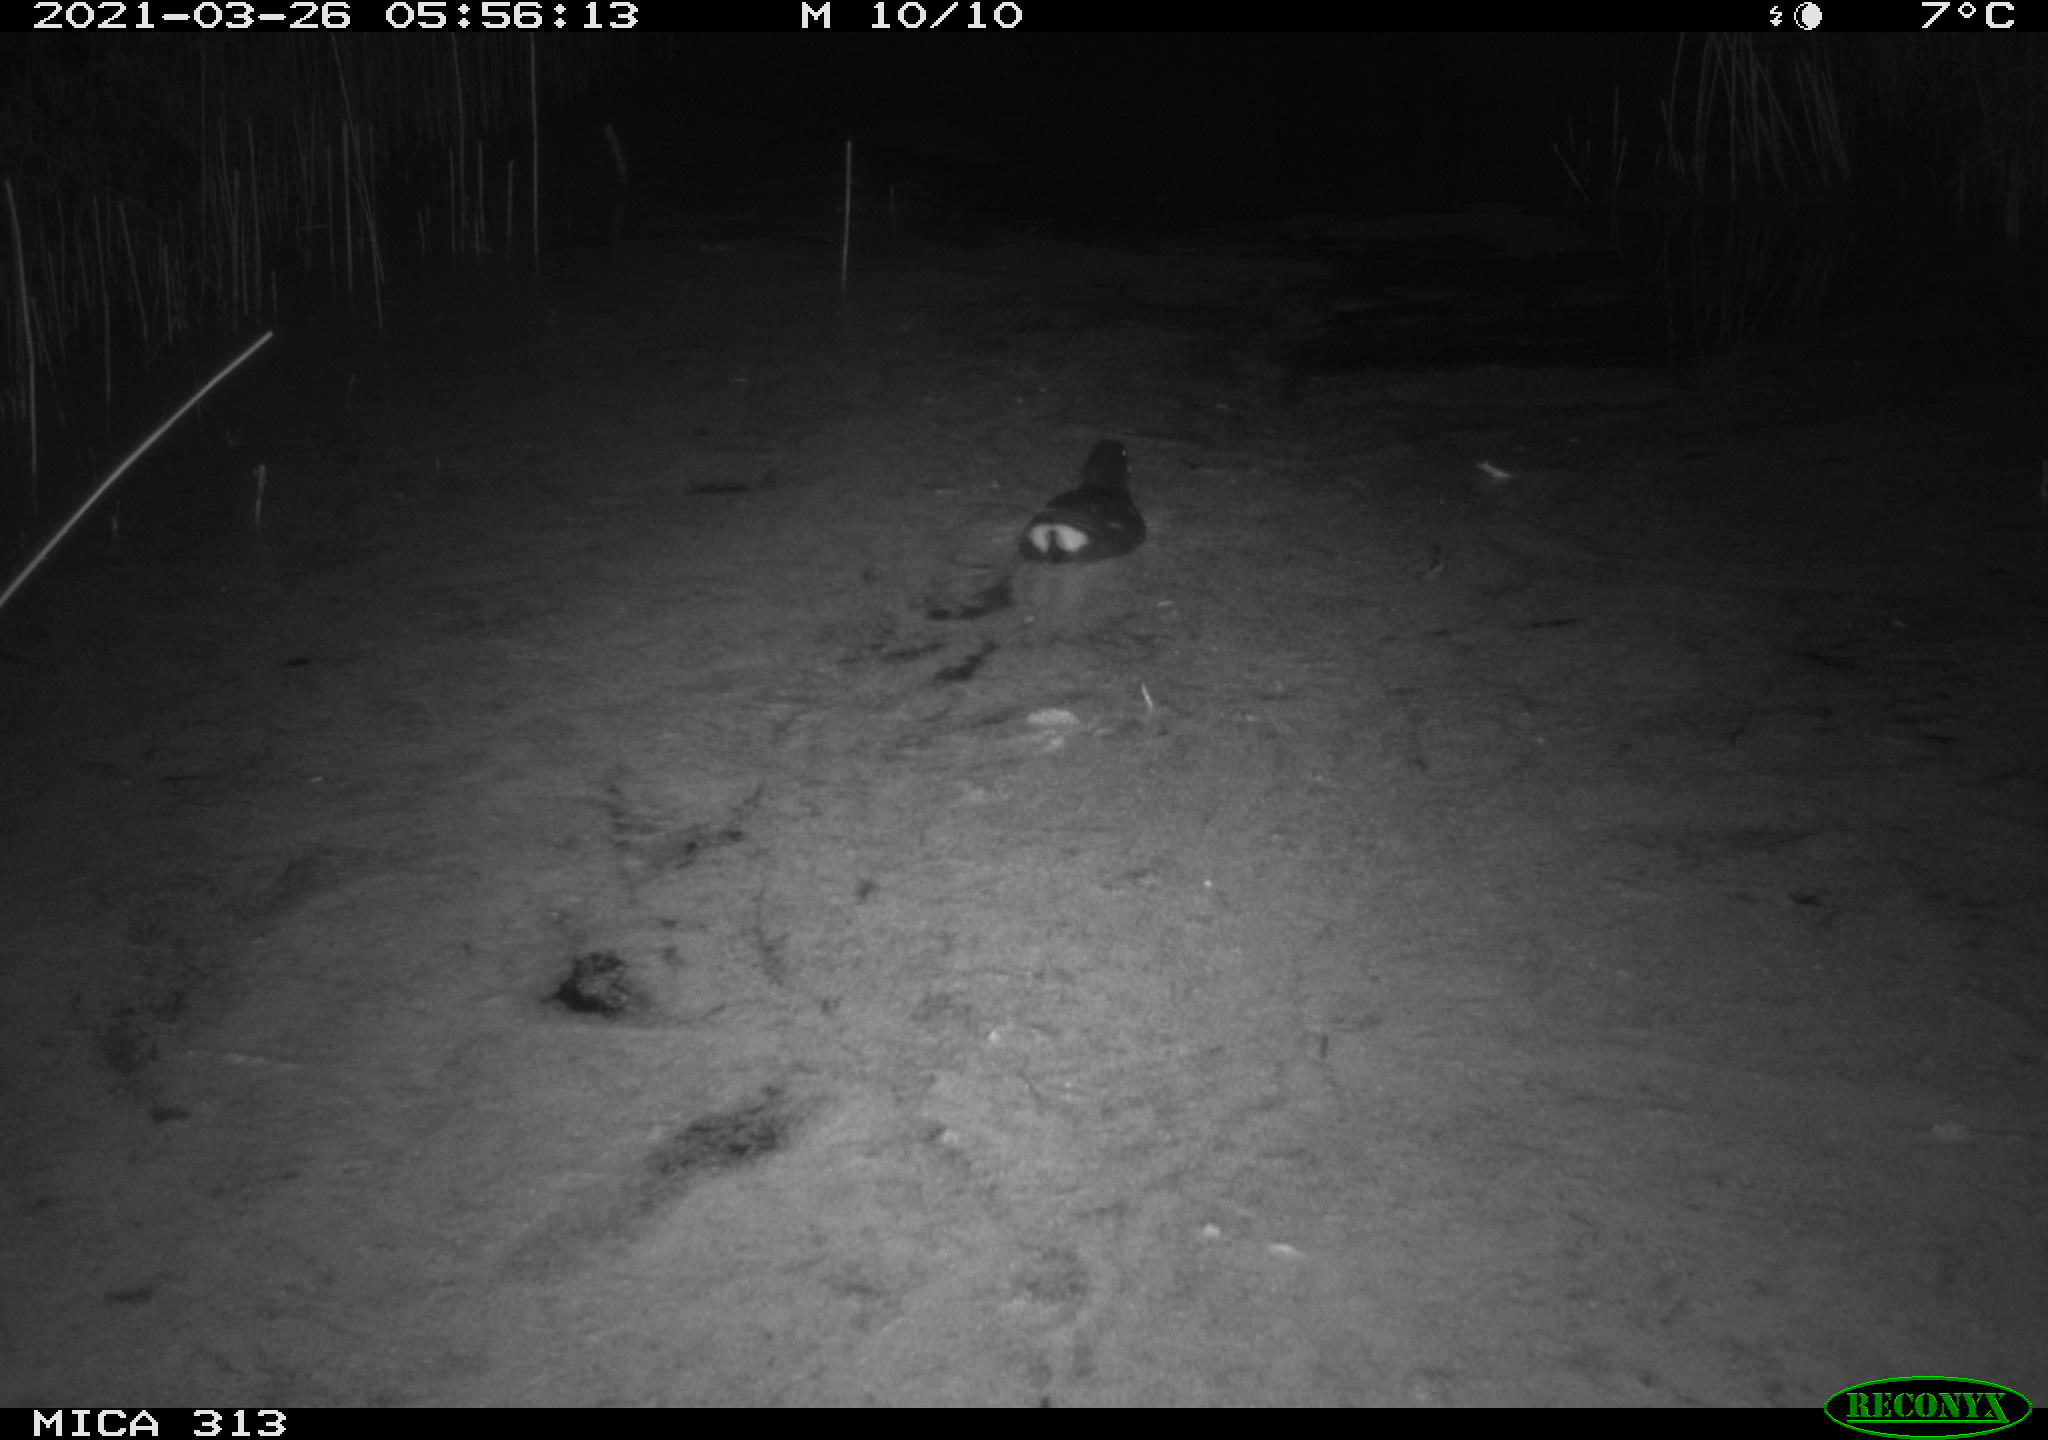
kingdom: Animalia
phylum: Chordata
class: Aves
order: Gruiformes
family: Rallidae
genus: Fulica
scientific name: Fulica atra
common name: Eurasian coot
